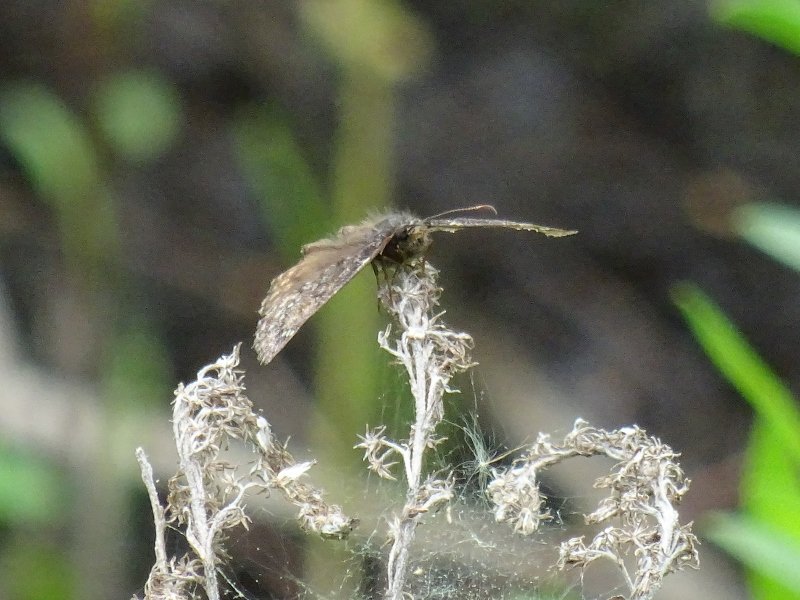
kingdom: Animalia
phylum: Arthropoda
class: Insecta
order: Lepidoptera
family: Hesperiidae
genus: Erynnis
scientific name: Erynnis
